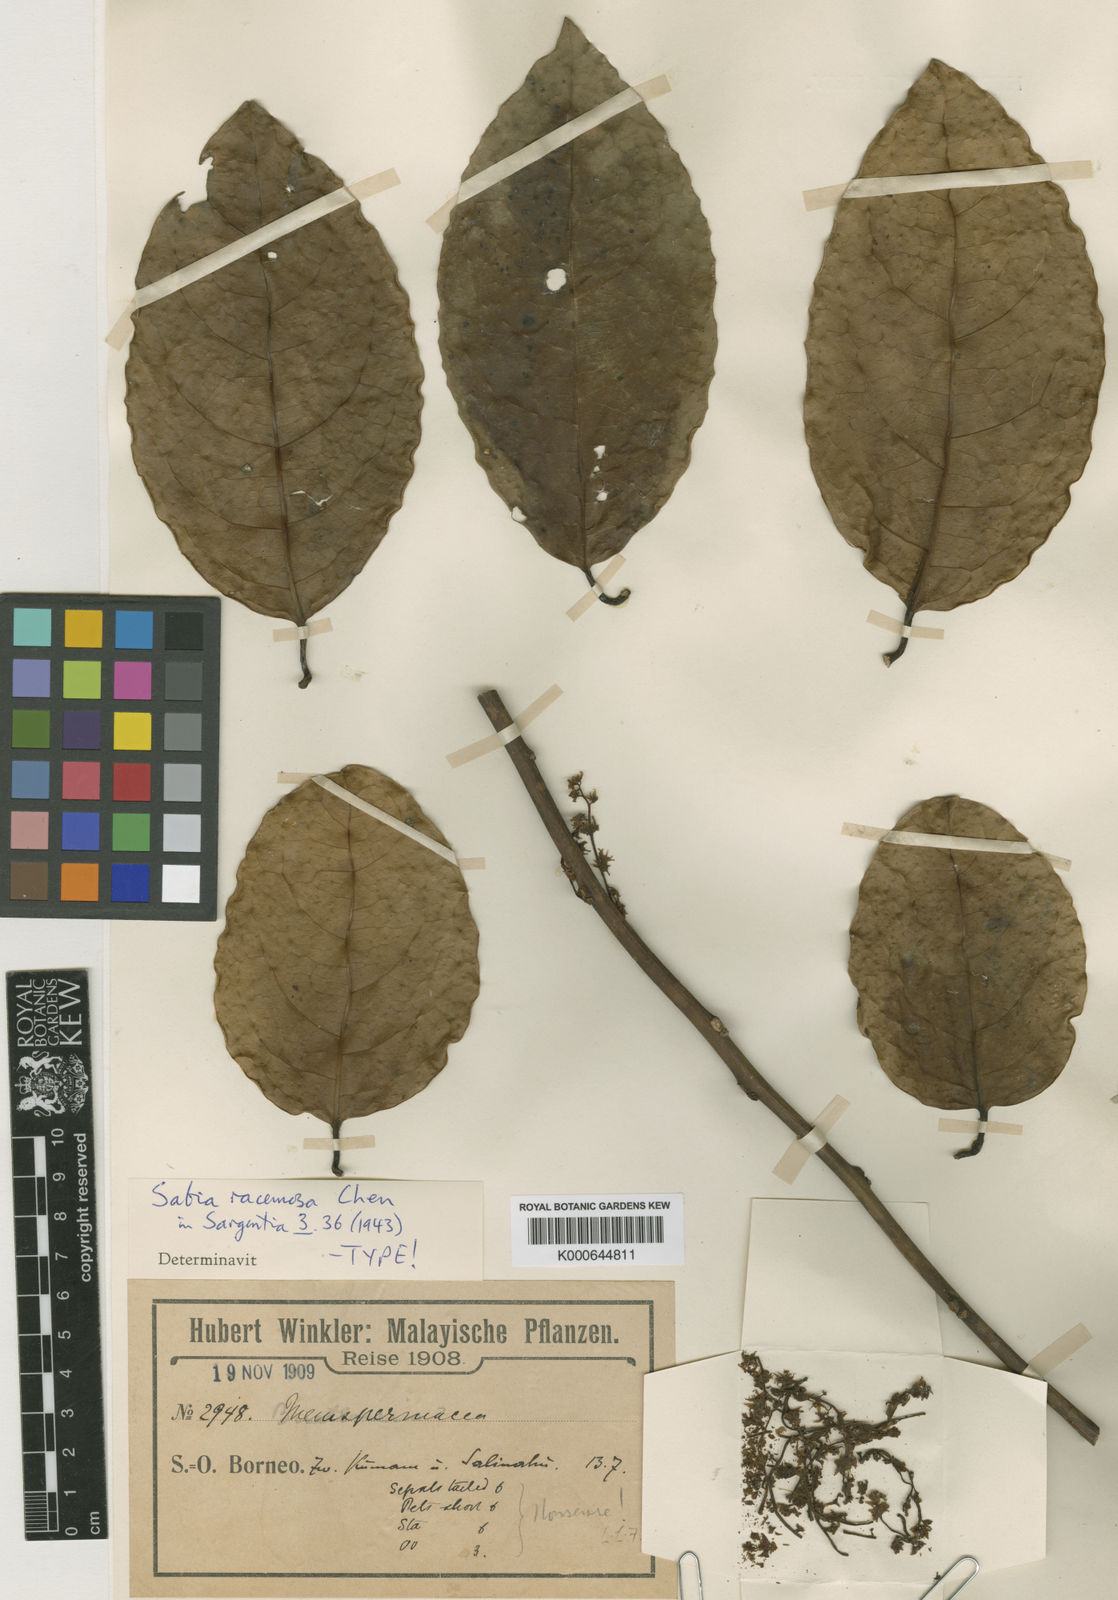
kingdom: Plantae
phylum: Tracheophyta
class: Magnoliopsida
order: Proteales
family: Sabiaceae
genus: Sabia
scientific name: Sabia racemosa
